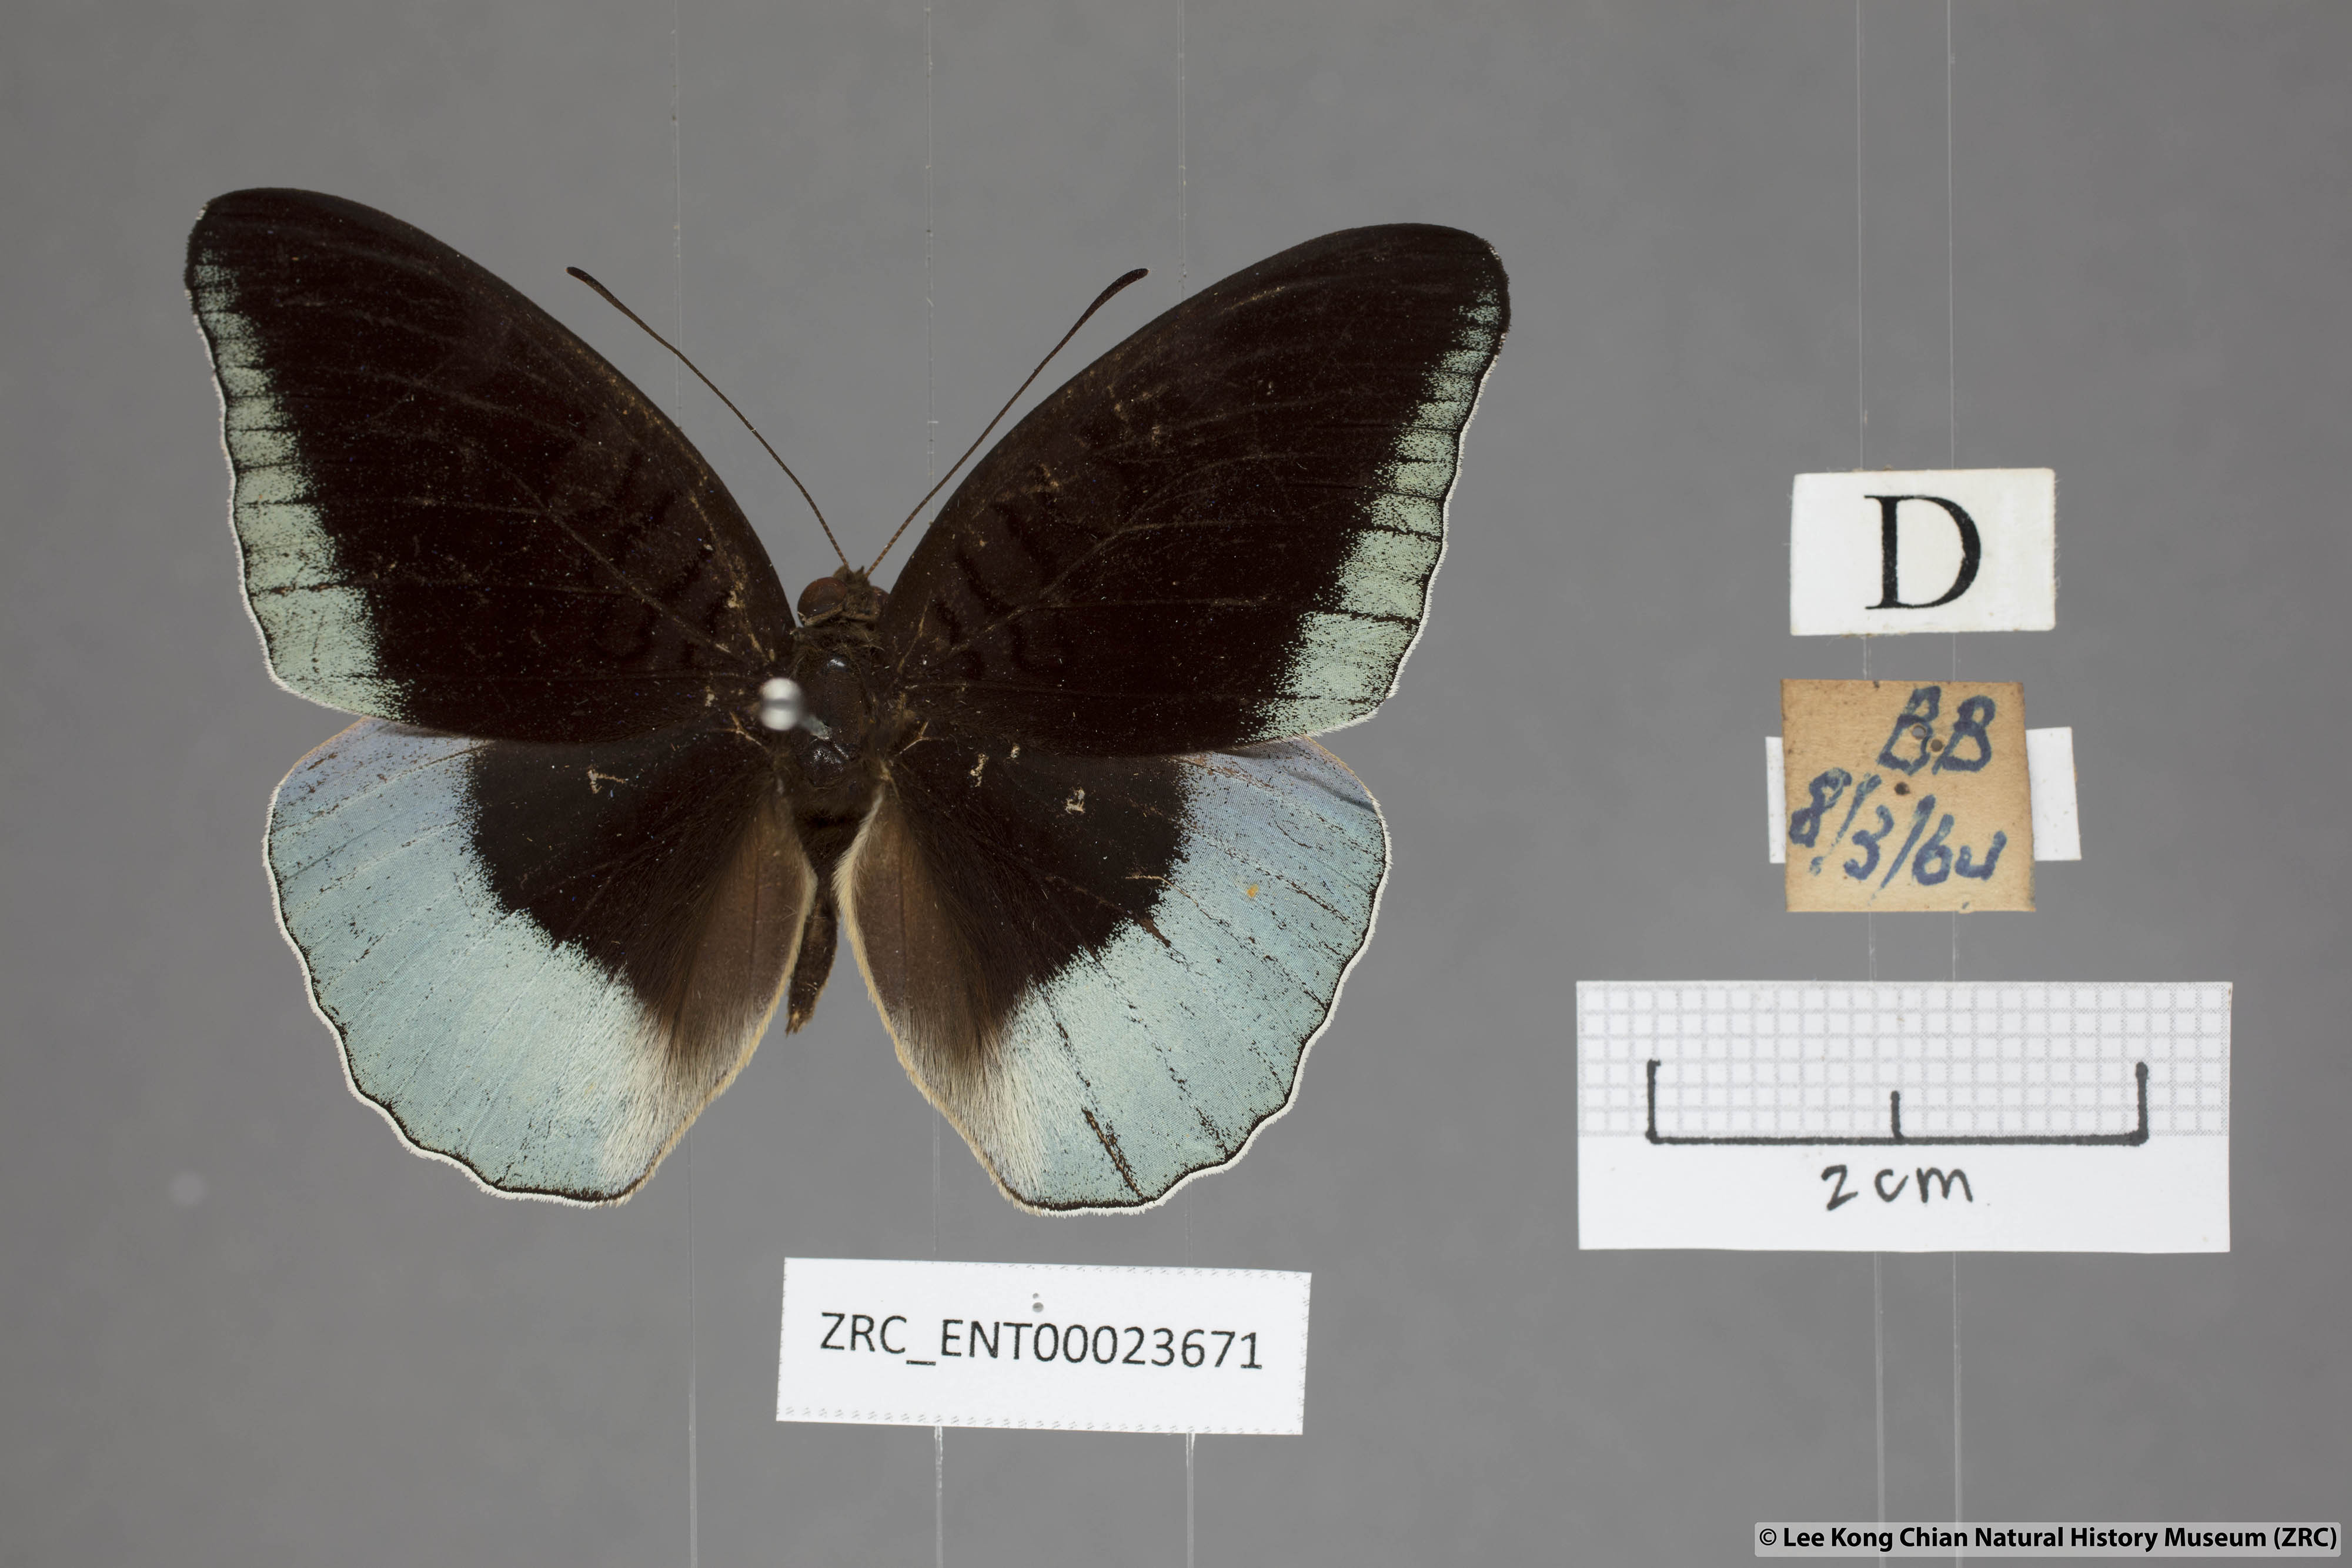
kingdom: Animalia
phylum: Arthropoda
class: Insecta
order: Lepidoptera
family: Nymphalidae
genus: Tanaecia
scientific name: Tanaecia iapis
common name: Horsfield's baron
